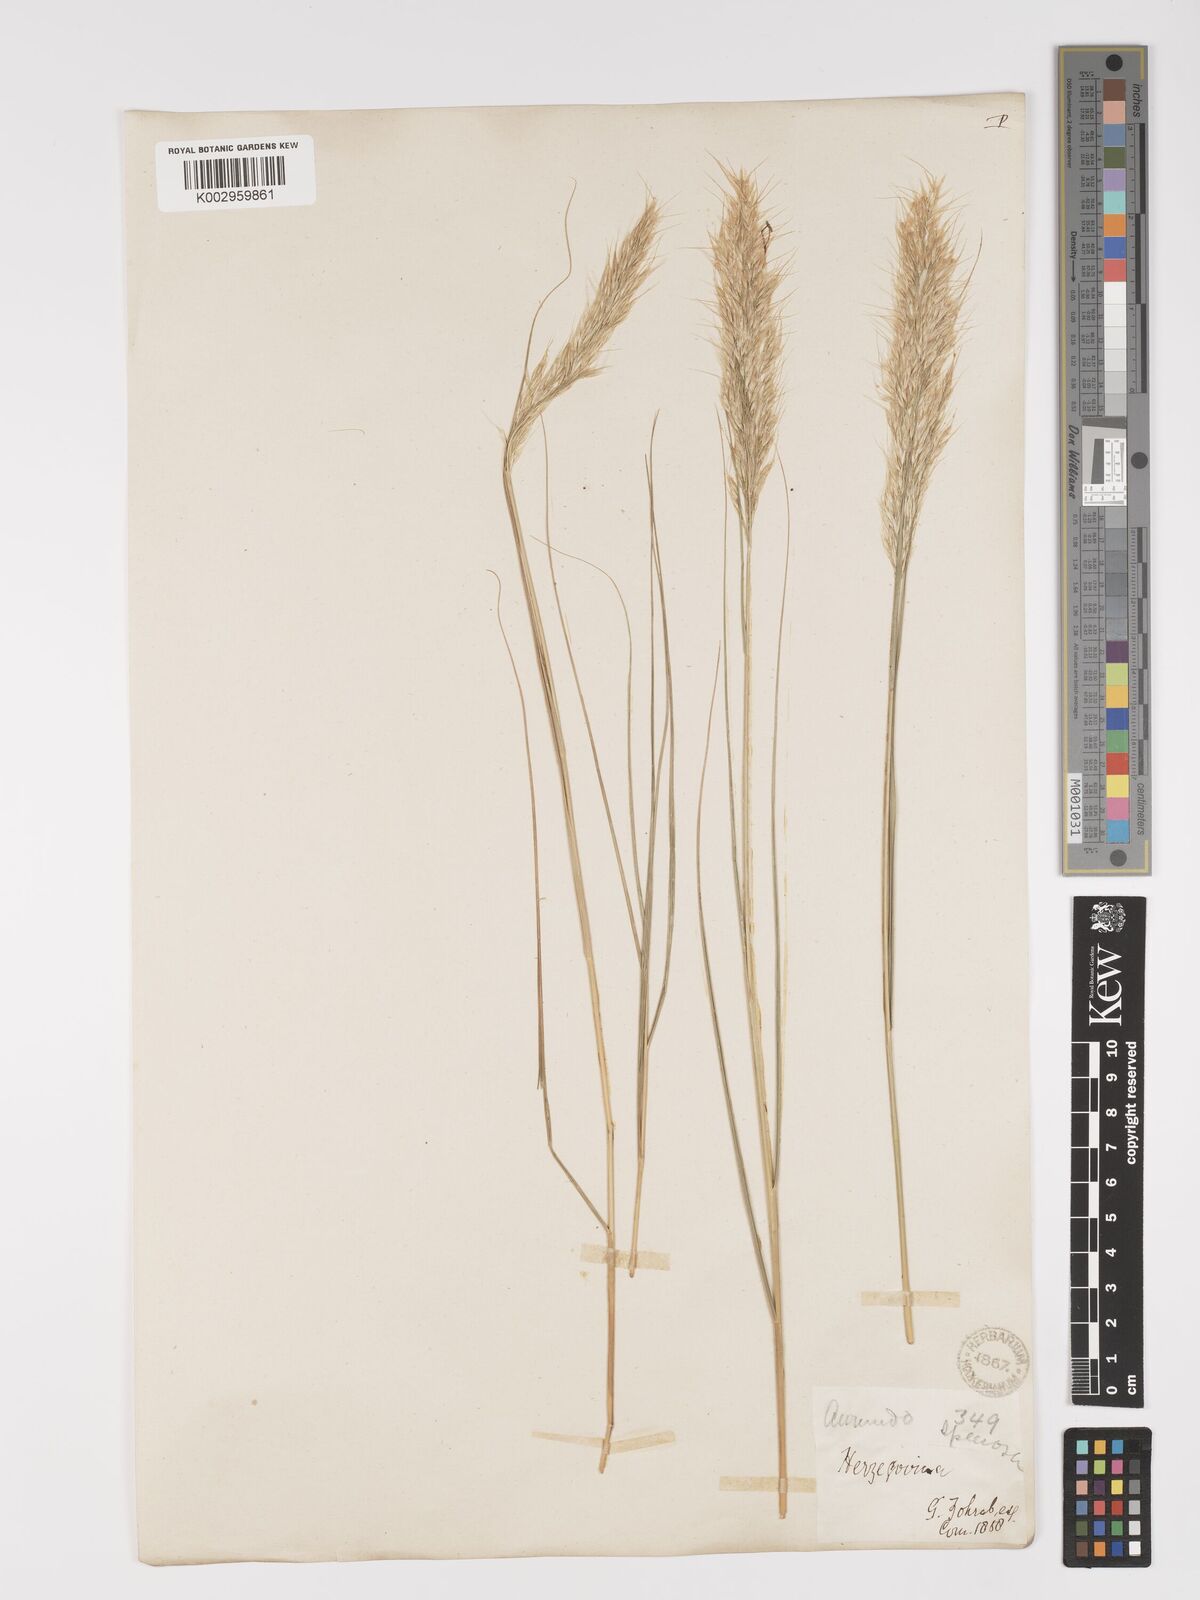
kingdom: Plantae
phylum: Tracheophyta
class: Liliopsida
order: Poales
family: Poaceae
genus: Achnatherum
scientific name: Achnatherum calamagrostis
